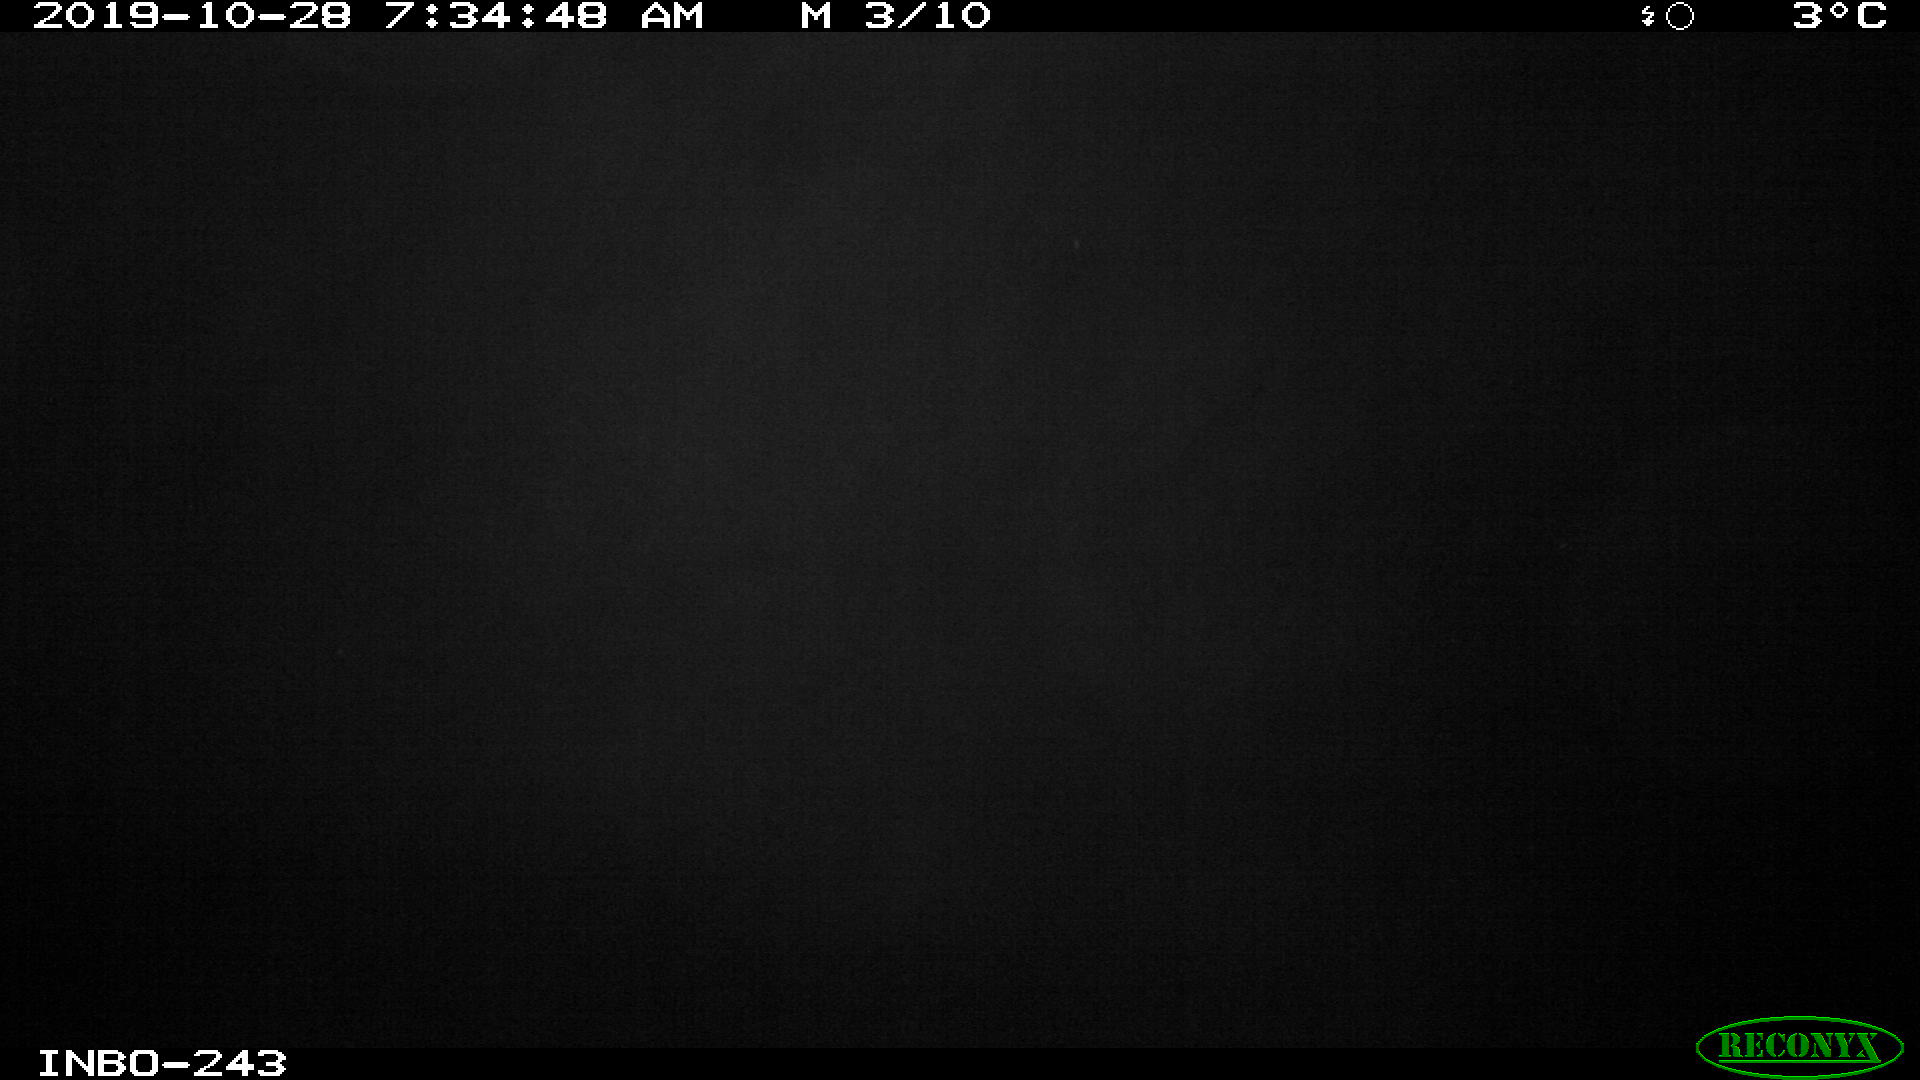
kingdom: Animalia
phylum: Chordata
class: Aves
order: Anseriformes
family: Anatidae
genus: Anas
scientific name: Anas platyrhynchos
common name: Mallard
